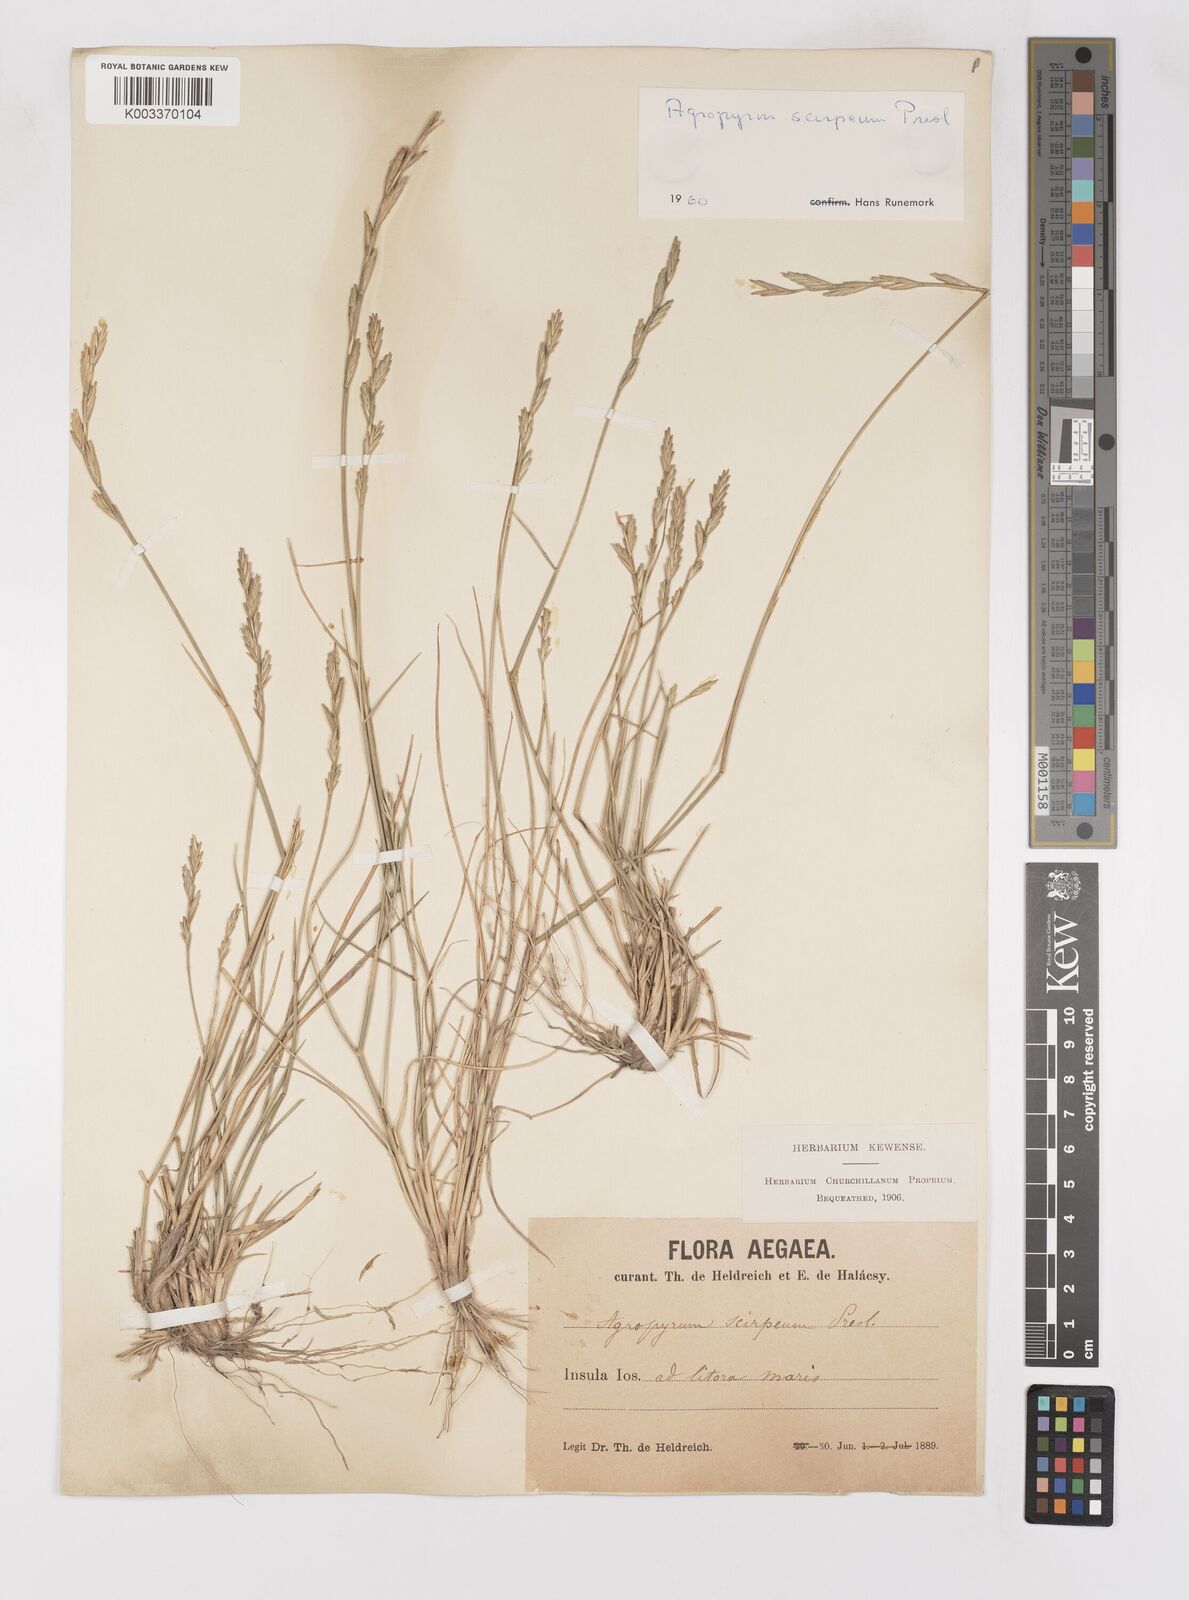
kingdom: Plantae
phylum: Tracheophyta
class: Liliopsida
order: Poales
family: Poaceae
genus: Thinopyrum
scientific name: Thinopyrum elongatum
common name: Tall wheatgrass
